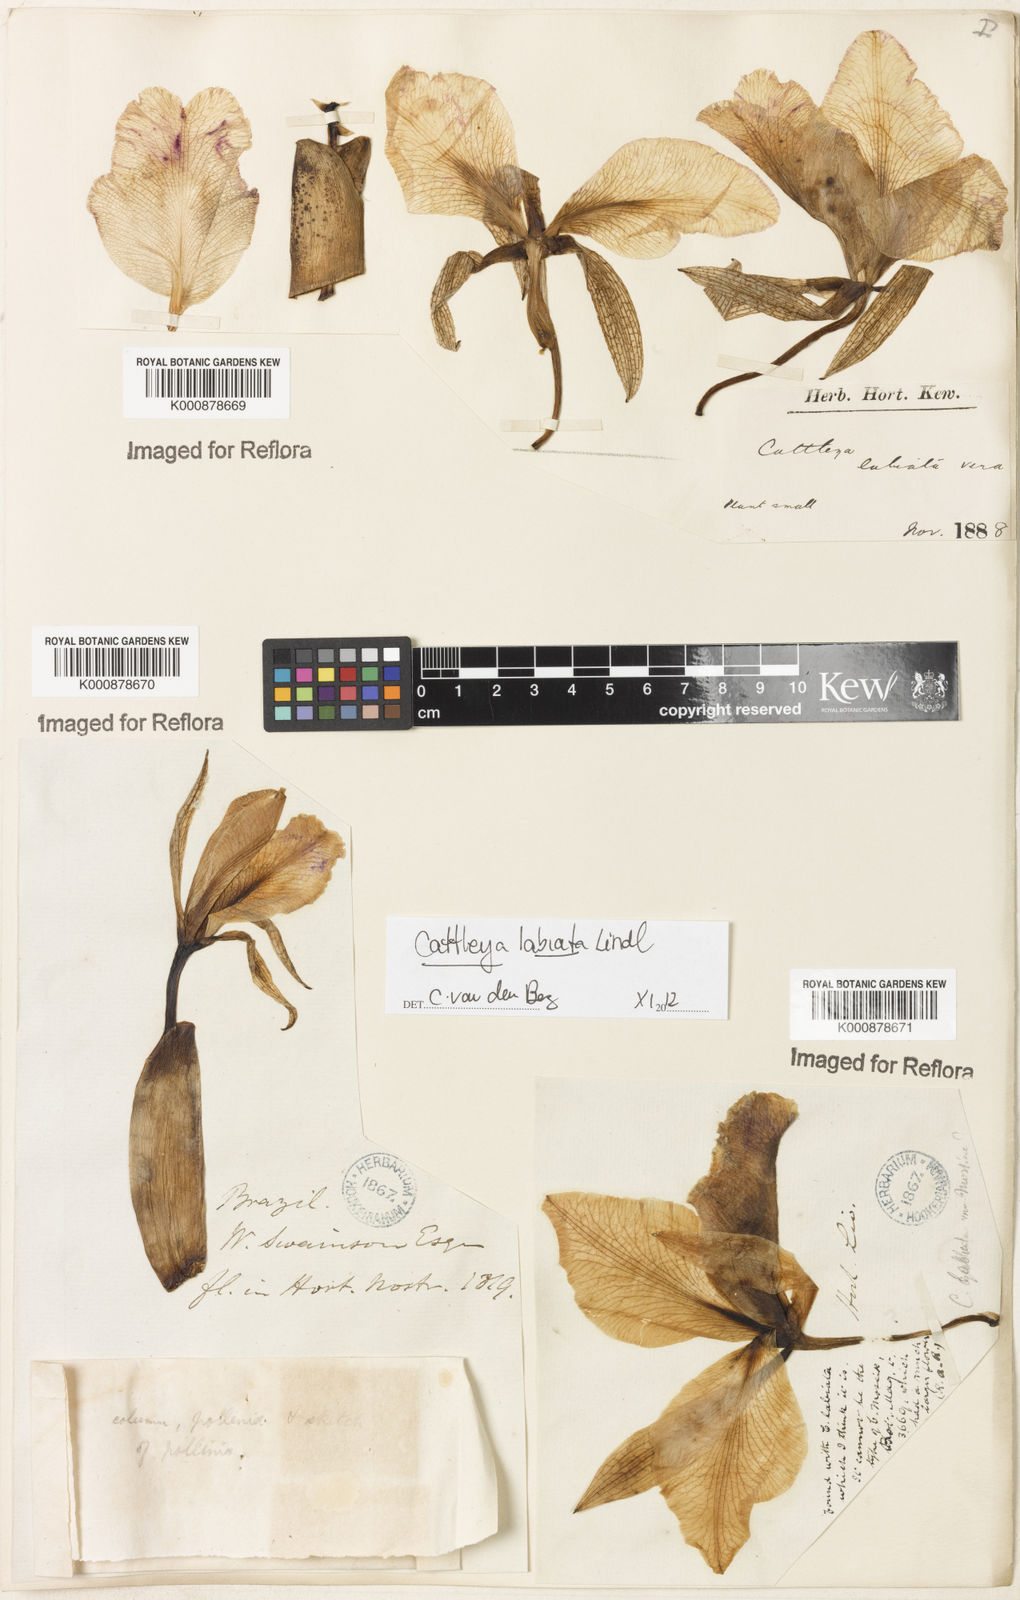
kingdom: Plantae
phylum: Tracheophyta
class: Liliopsida
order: Asparagales
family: Orchidaceae
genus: Cattleya
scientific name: Cattleya labiata
